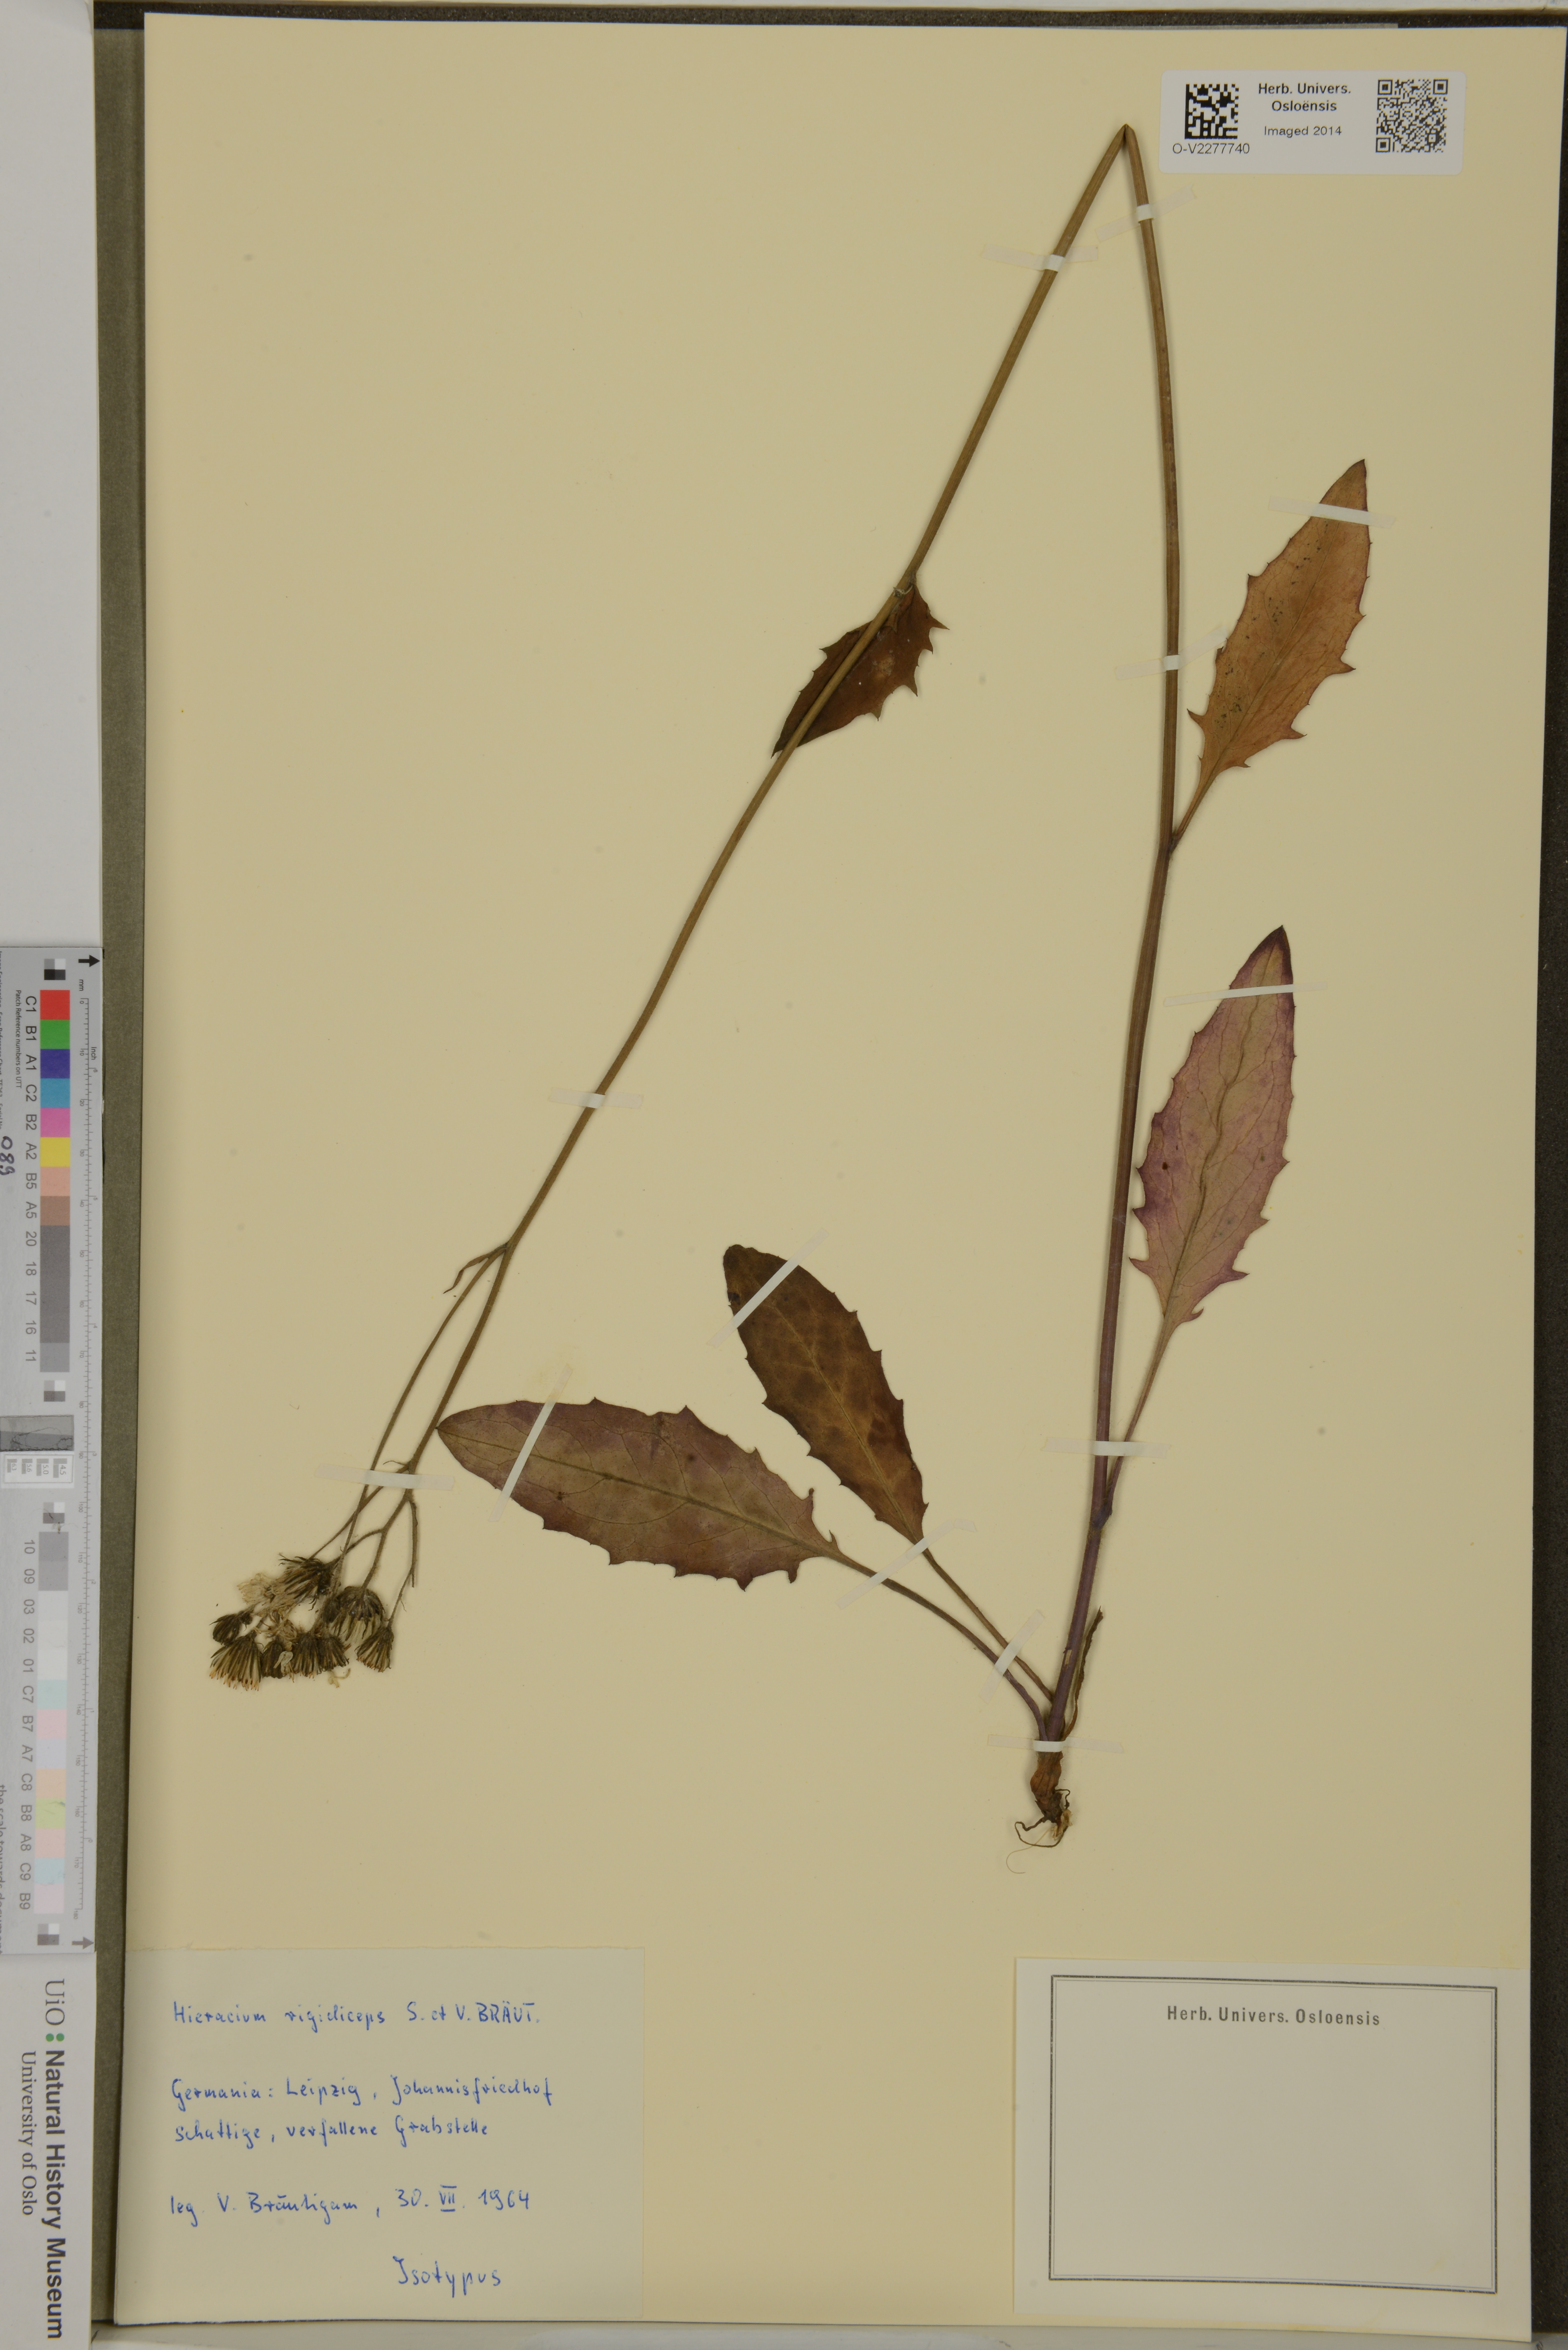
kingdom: Plantae
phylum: Tracheophyta
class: Magnoliopsida
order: Asterales
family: Asteraceae
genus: Hieracium
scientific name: Hieracium maculatum
